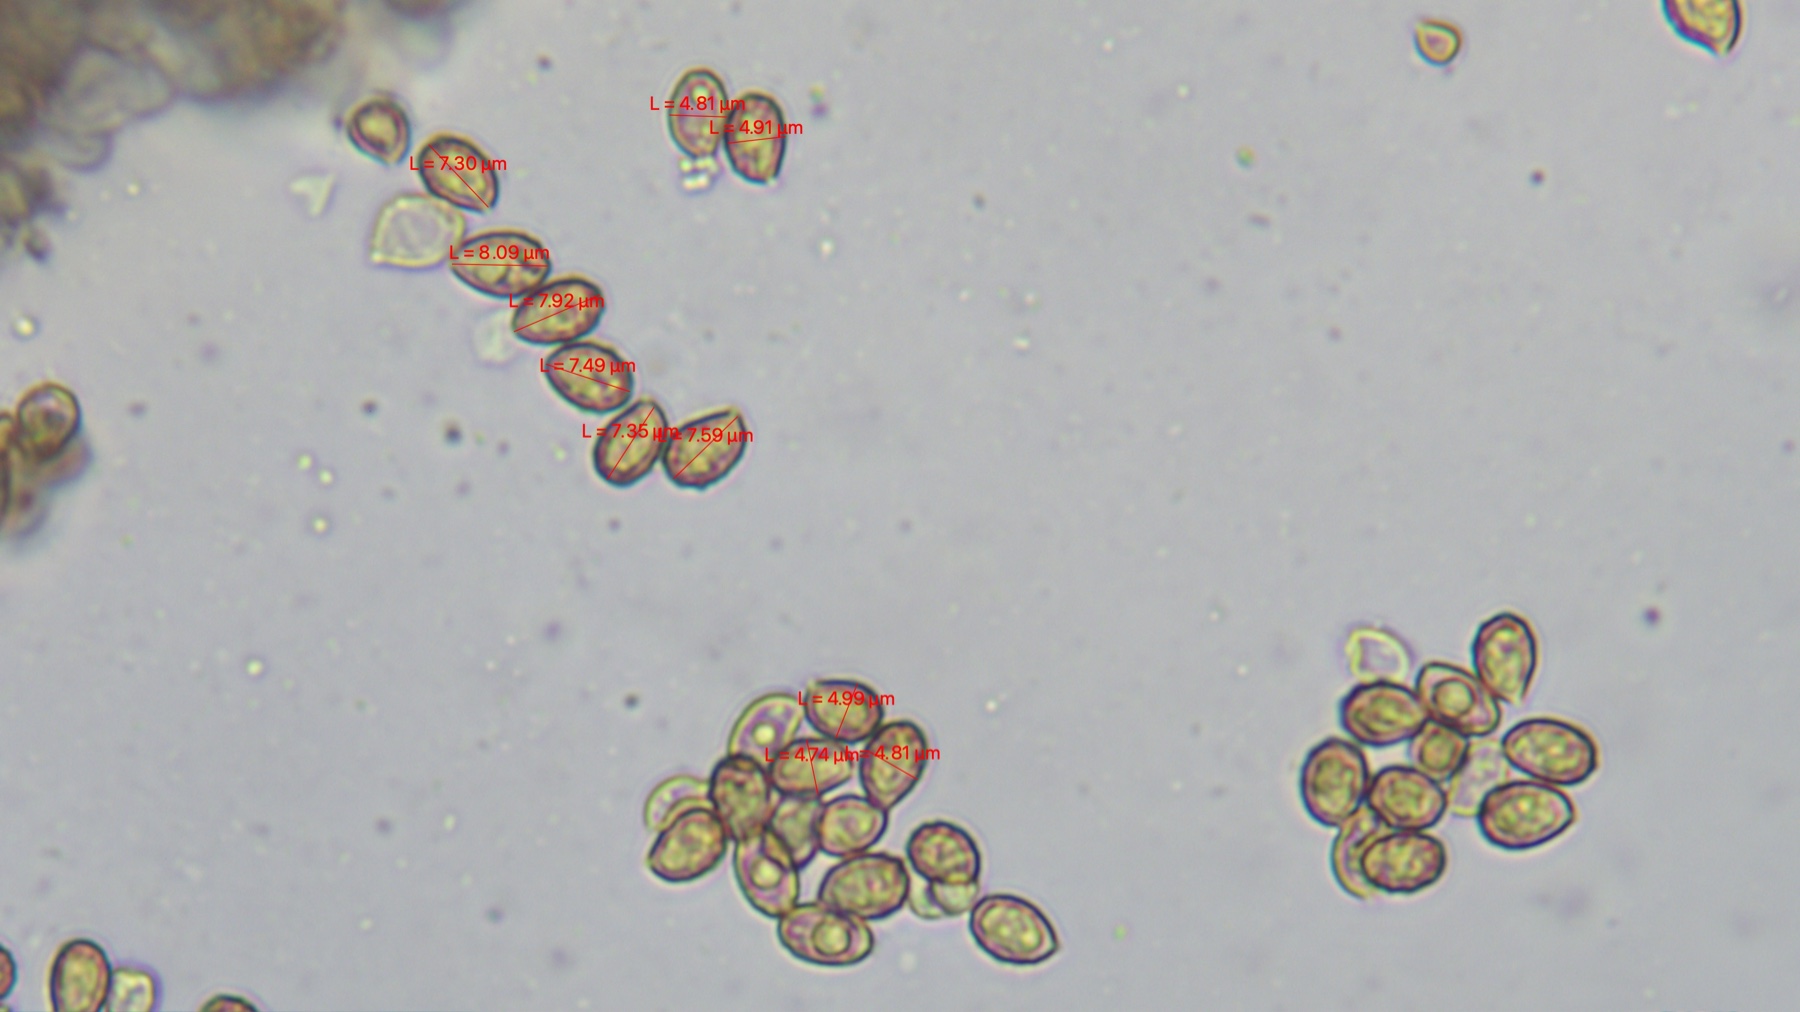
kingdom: Fungi
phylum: Basidiomycota
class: Agaricomycetes
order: Agaricales
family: Cortinariaceae
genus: Cortinarius
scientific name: Cortinarius
